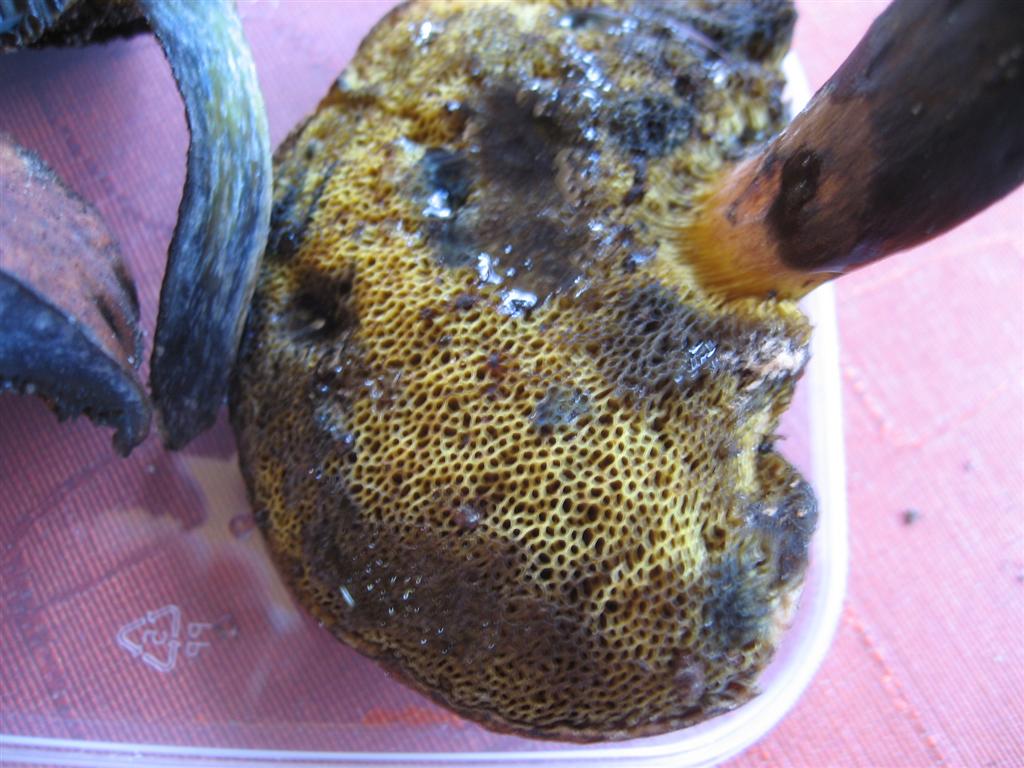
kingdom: Fungi
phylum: Basidiomycota
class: Agaricomycetes
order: Boletales
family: Boletaceae
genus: Cyanoboletus
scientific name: Cyanoboletus pulverulentus
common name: sortblånende rørhat
